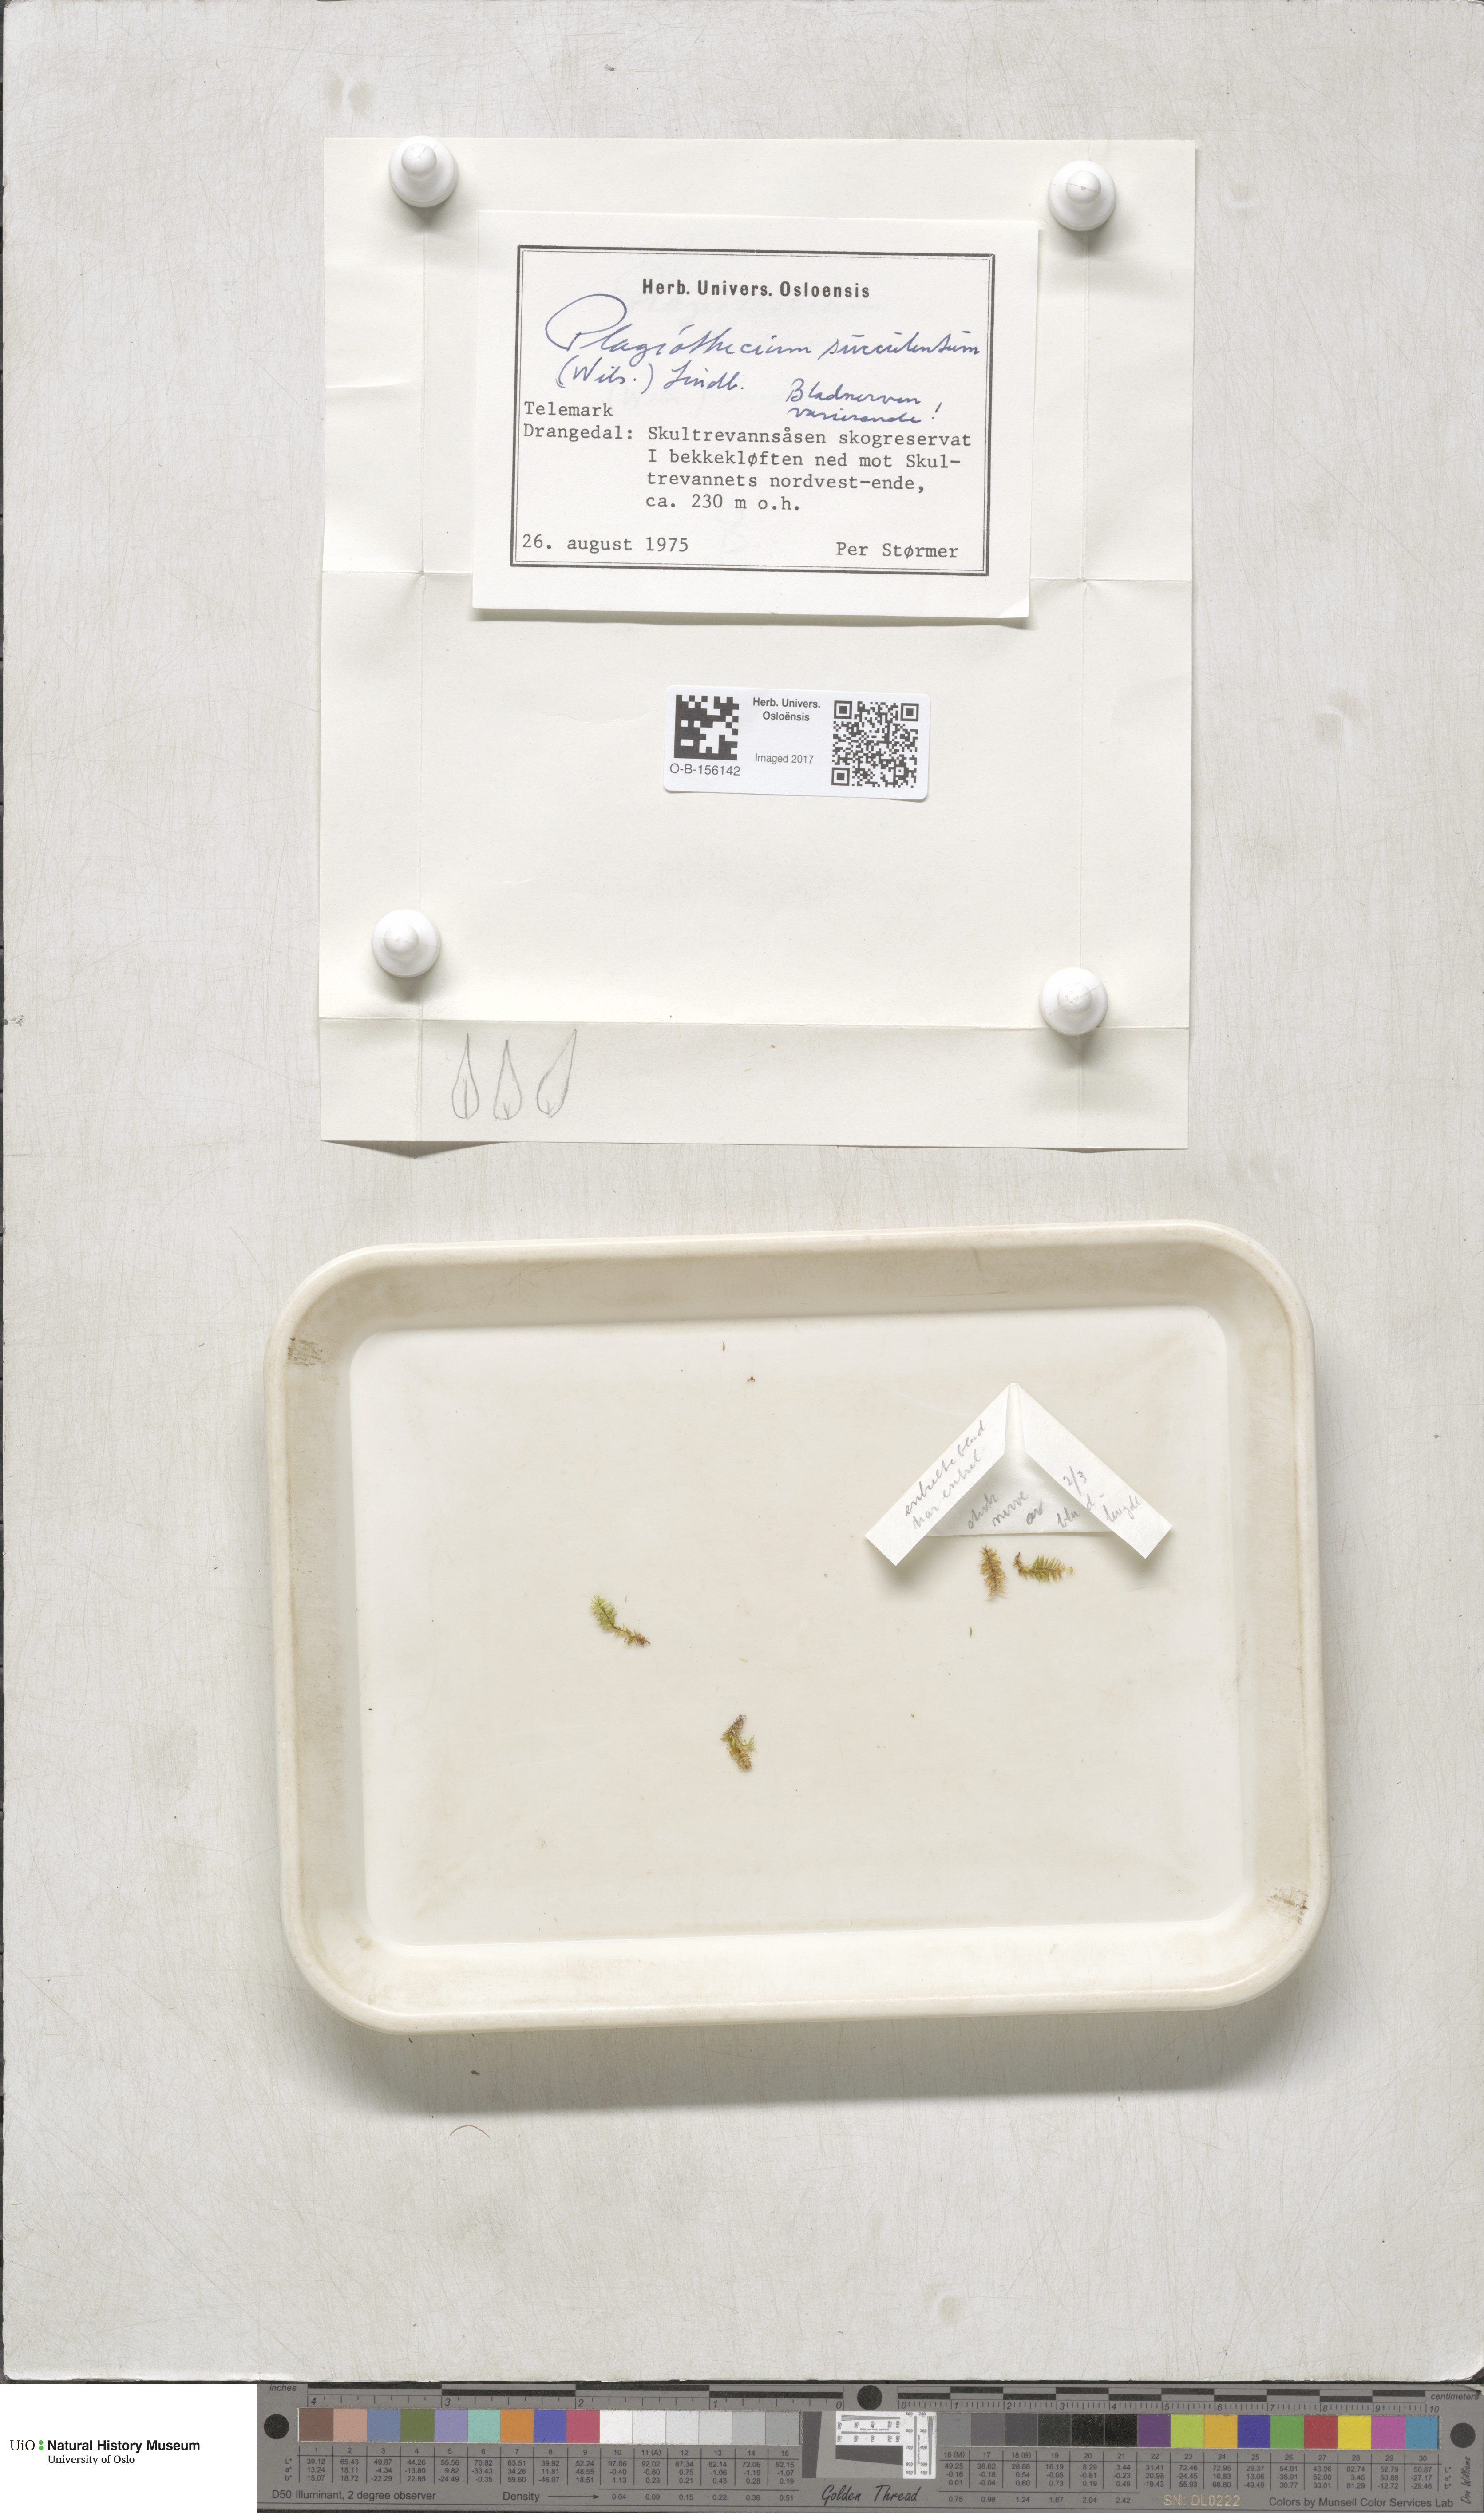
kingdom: Plantae
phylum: Bryophyta
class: Bryopsida
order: Hypnales
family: Plagiotheciaceae
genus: Plagiothecium
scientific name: Plagiothecium nemorale
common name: Woodsy silk-moss
